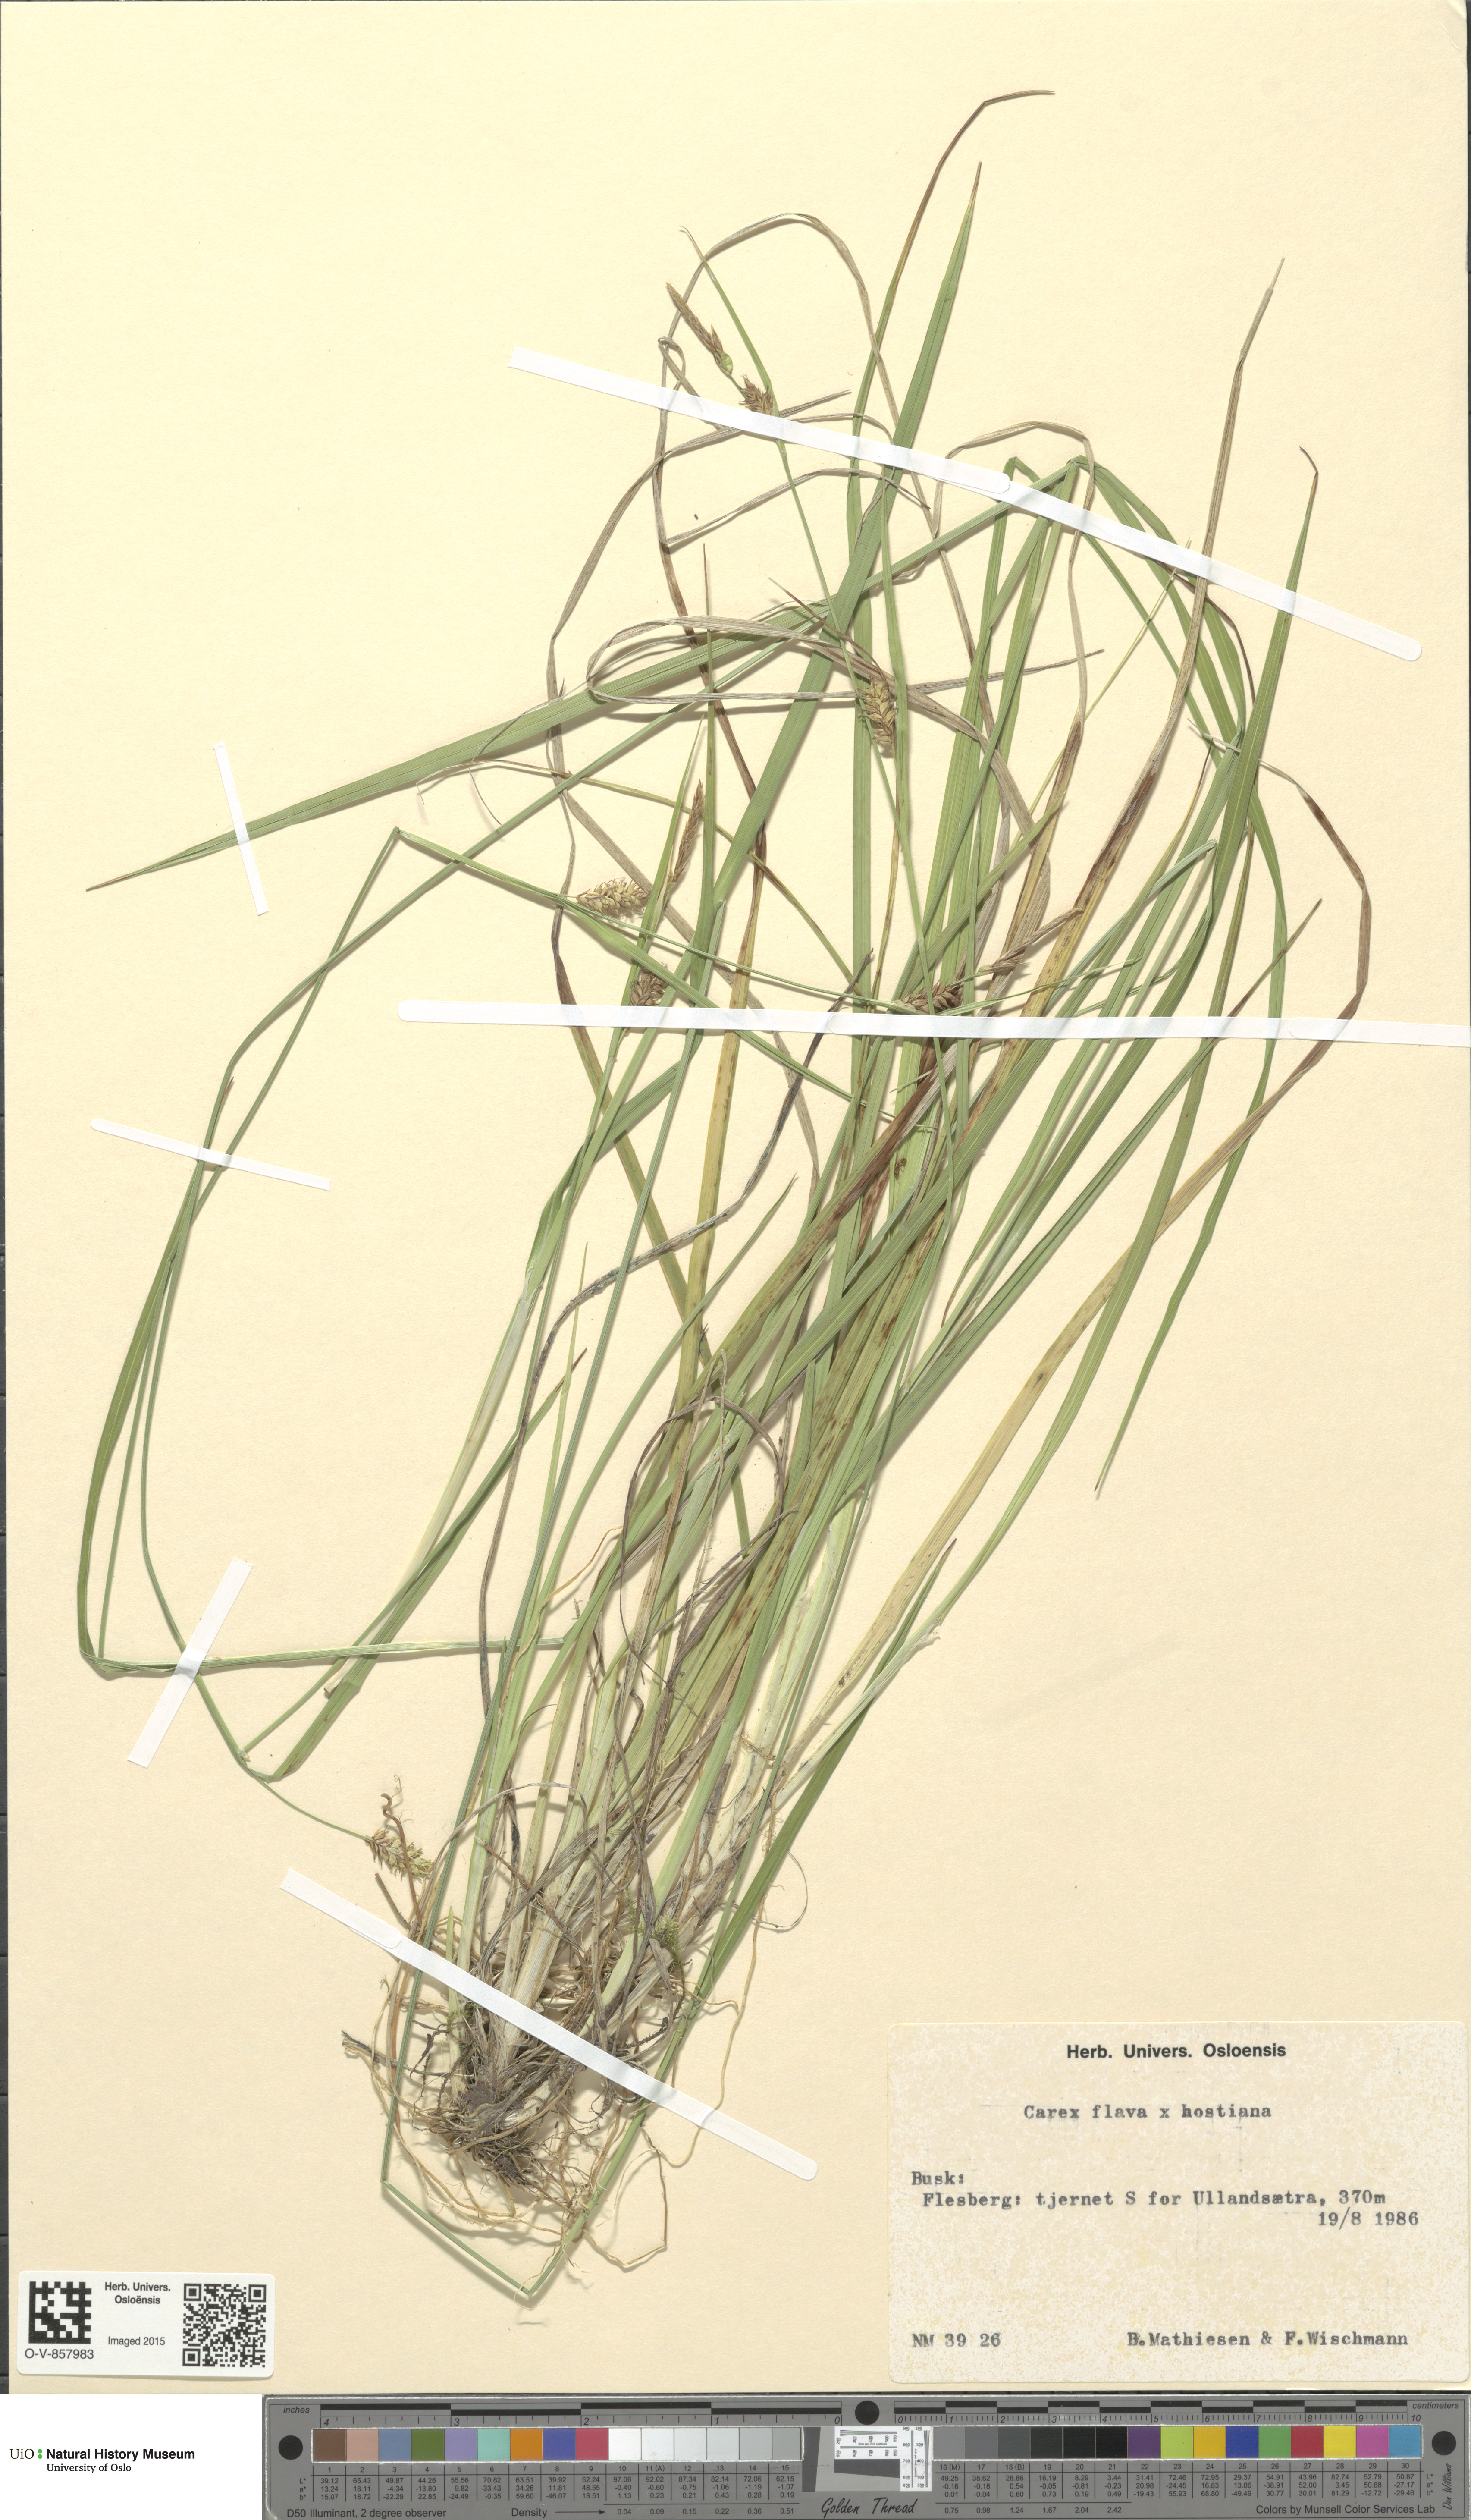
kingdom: Plantae
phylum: Tracheophyta
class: Liliopsida
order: Poales
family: Cyperaceae
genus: Carex
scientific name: Carex
